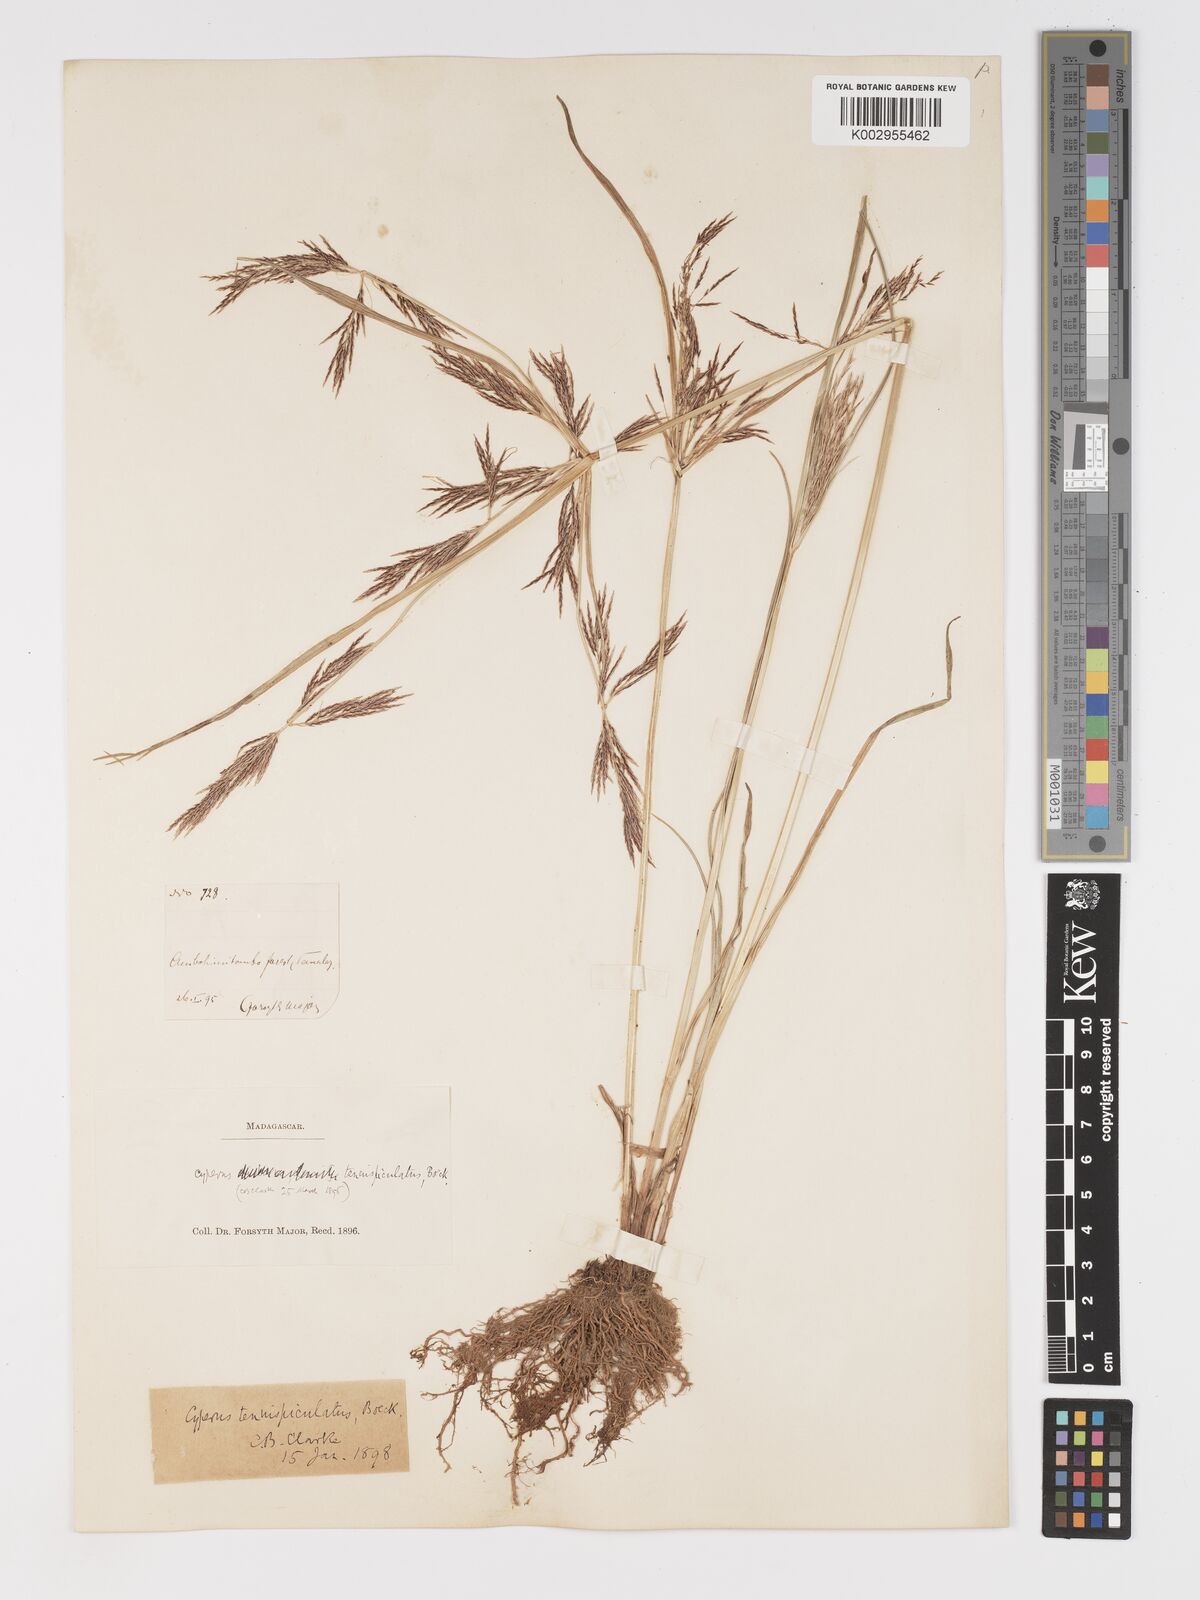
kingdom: Plantae
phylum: Tracheophyta
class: Liliopsida
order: Poales
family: Cyperaceae
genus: Cyperus
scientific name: Cyperus tenuispiculatus
